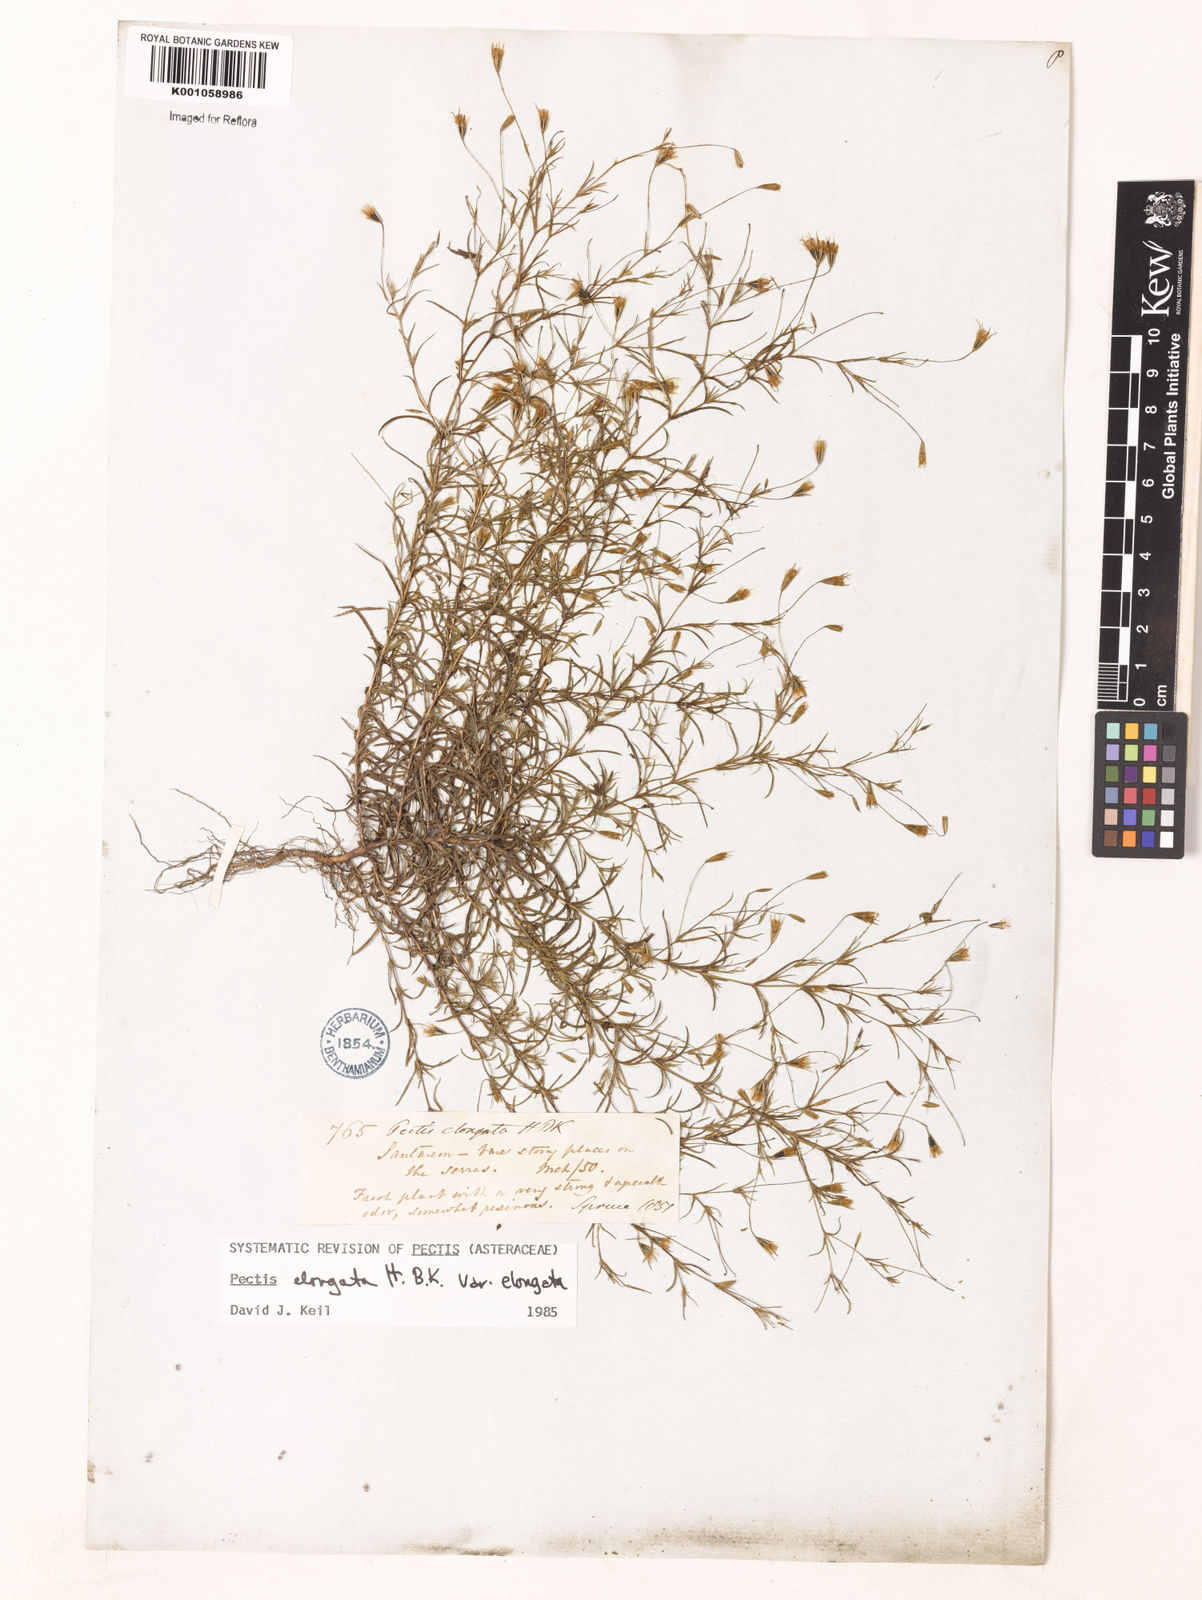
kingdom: Plantae
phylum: Tracheophyta
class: Magnoliopsida
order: Asterales
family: Asteraceae
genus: Pectis
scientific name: Pectis elongata
